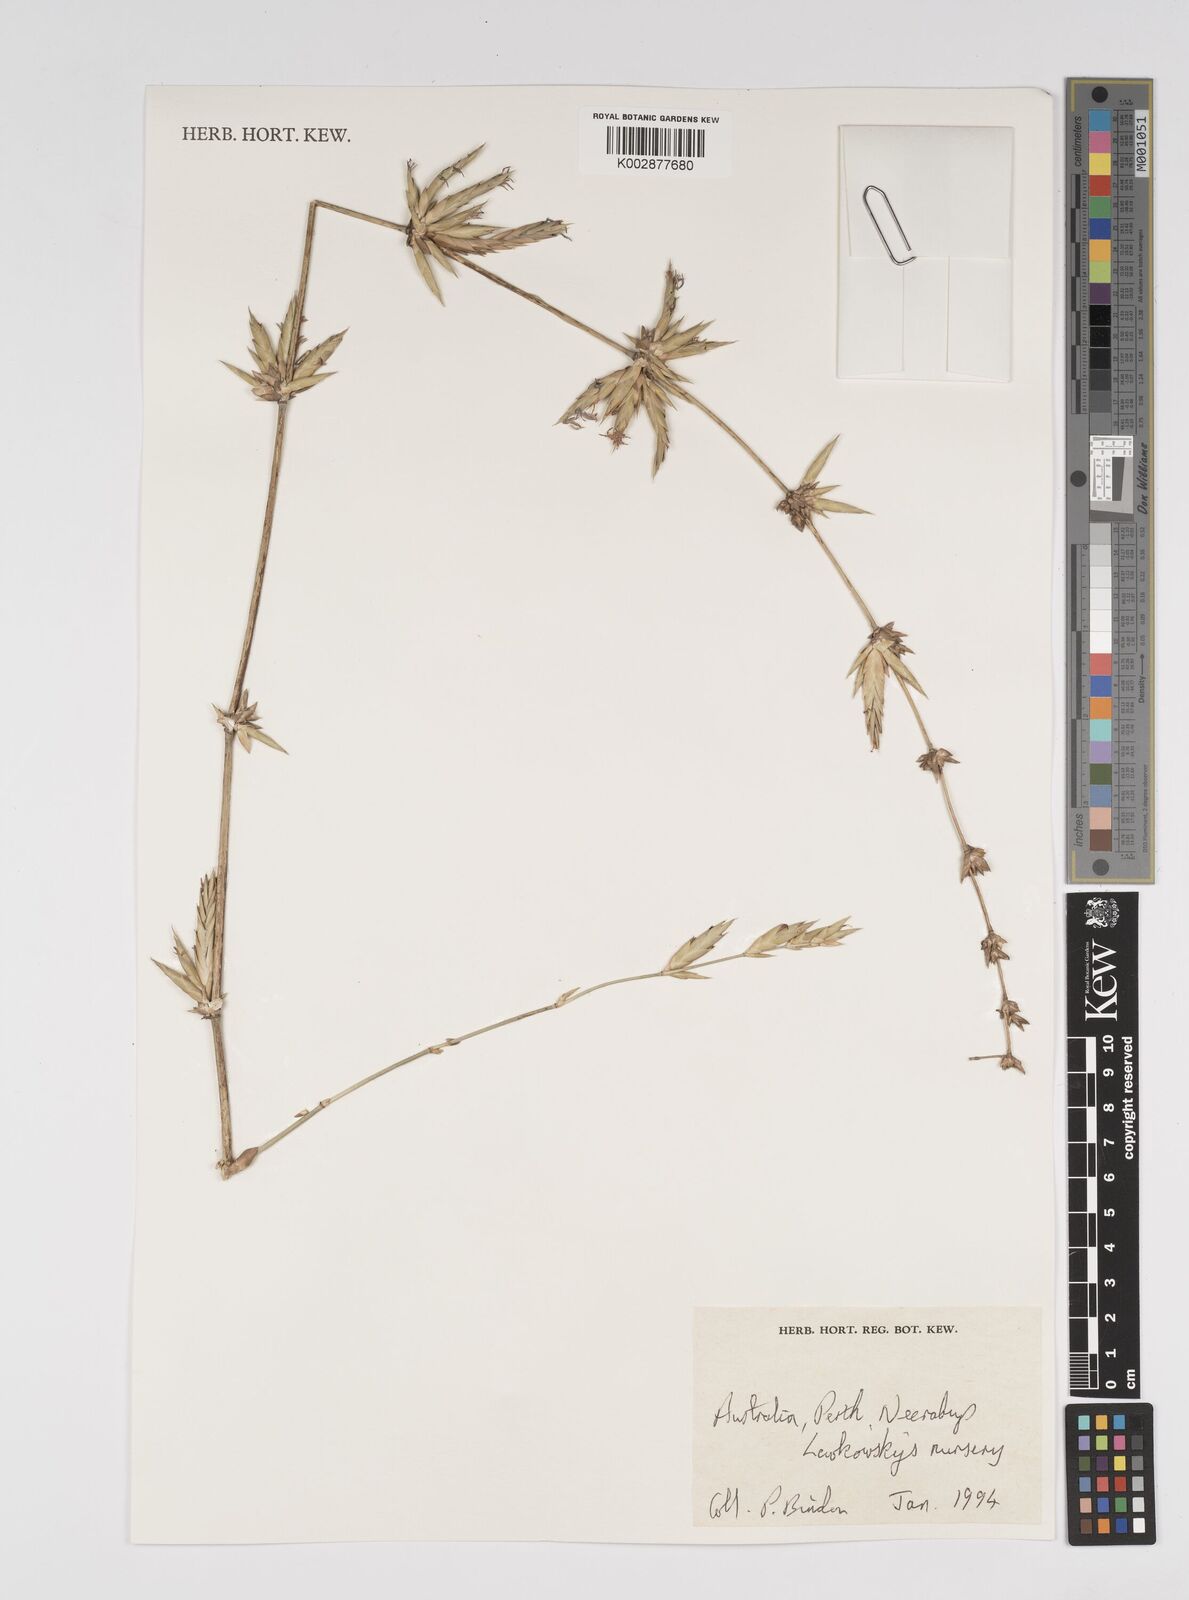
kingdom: Plantae
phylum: Tracheophyta
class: Liliopsida
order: Poales
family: Poaceae
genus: Bambusa
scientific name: Bambusa
